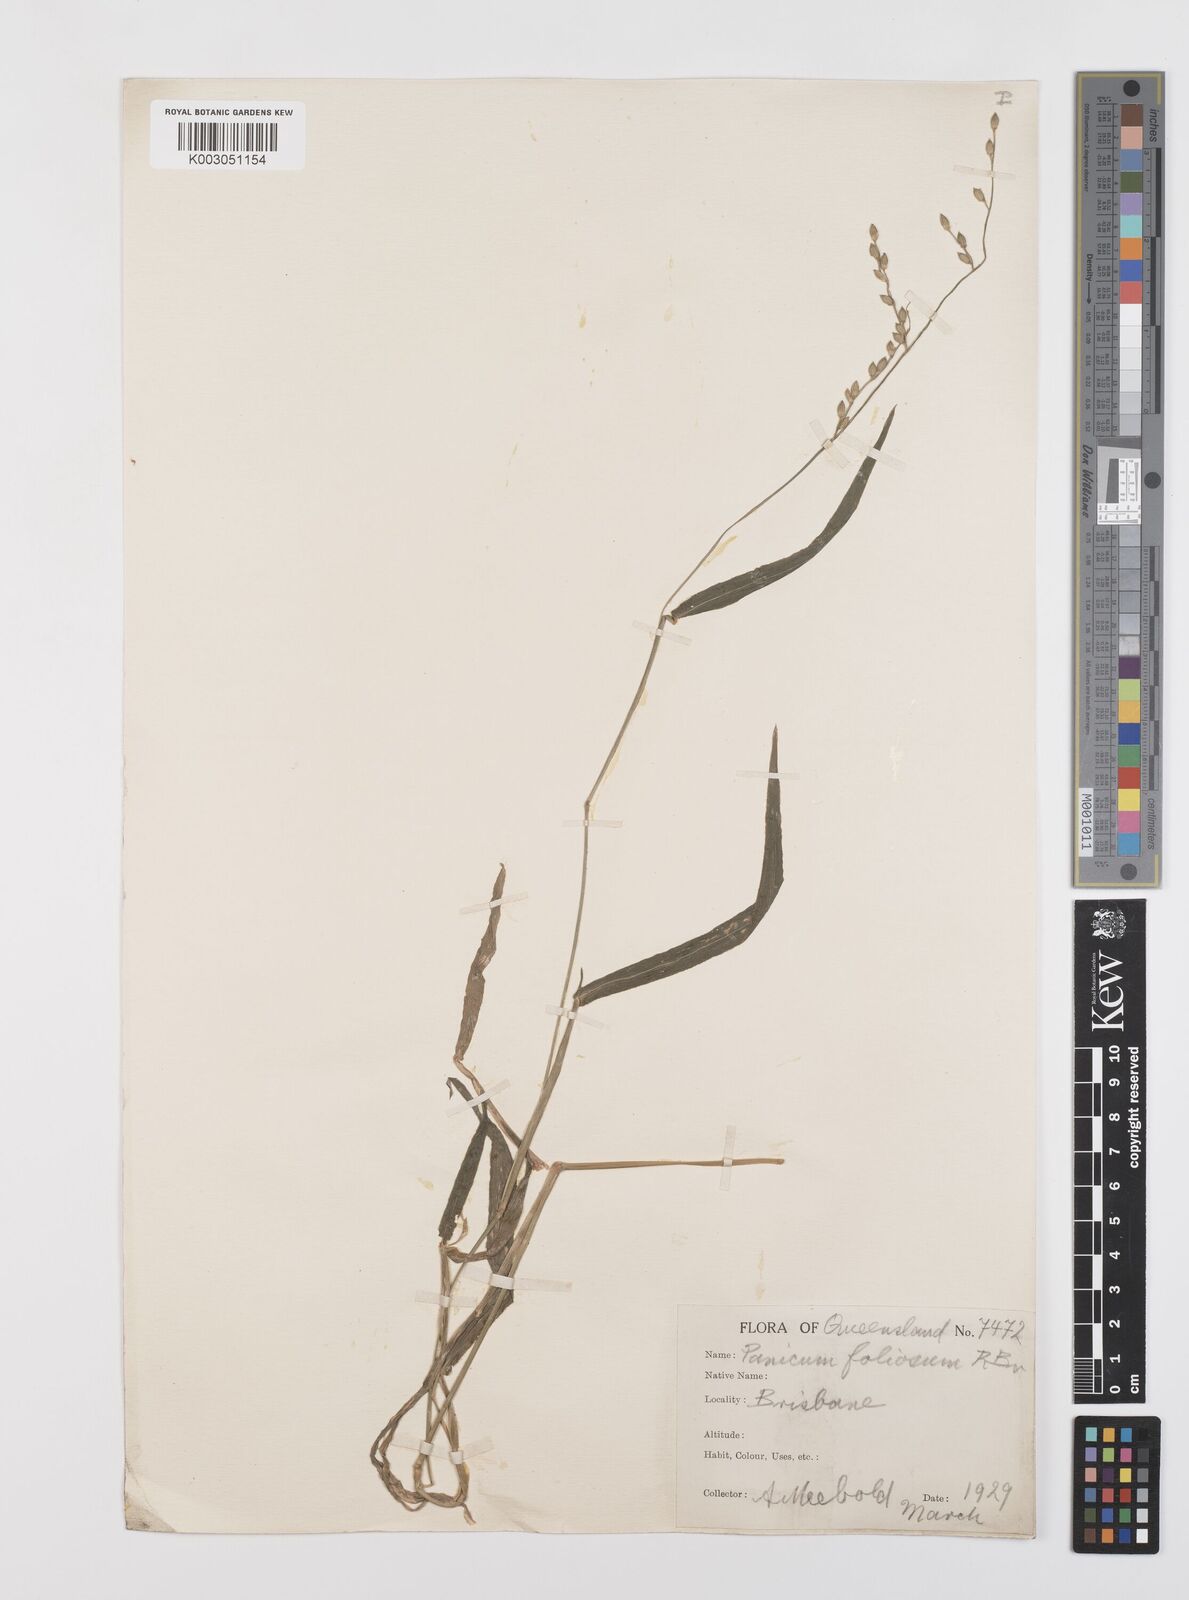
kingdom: Plantae
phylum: Tracheophyta
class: Liliopsida
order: Poales
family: Poaceae
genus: Urochloa
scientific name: Urochloa foliosa
